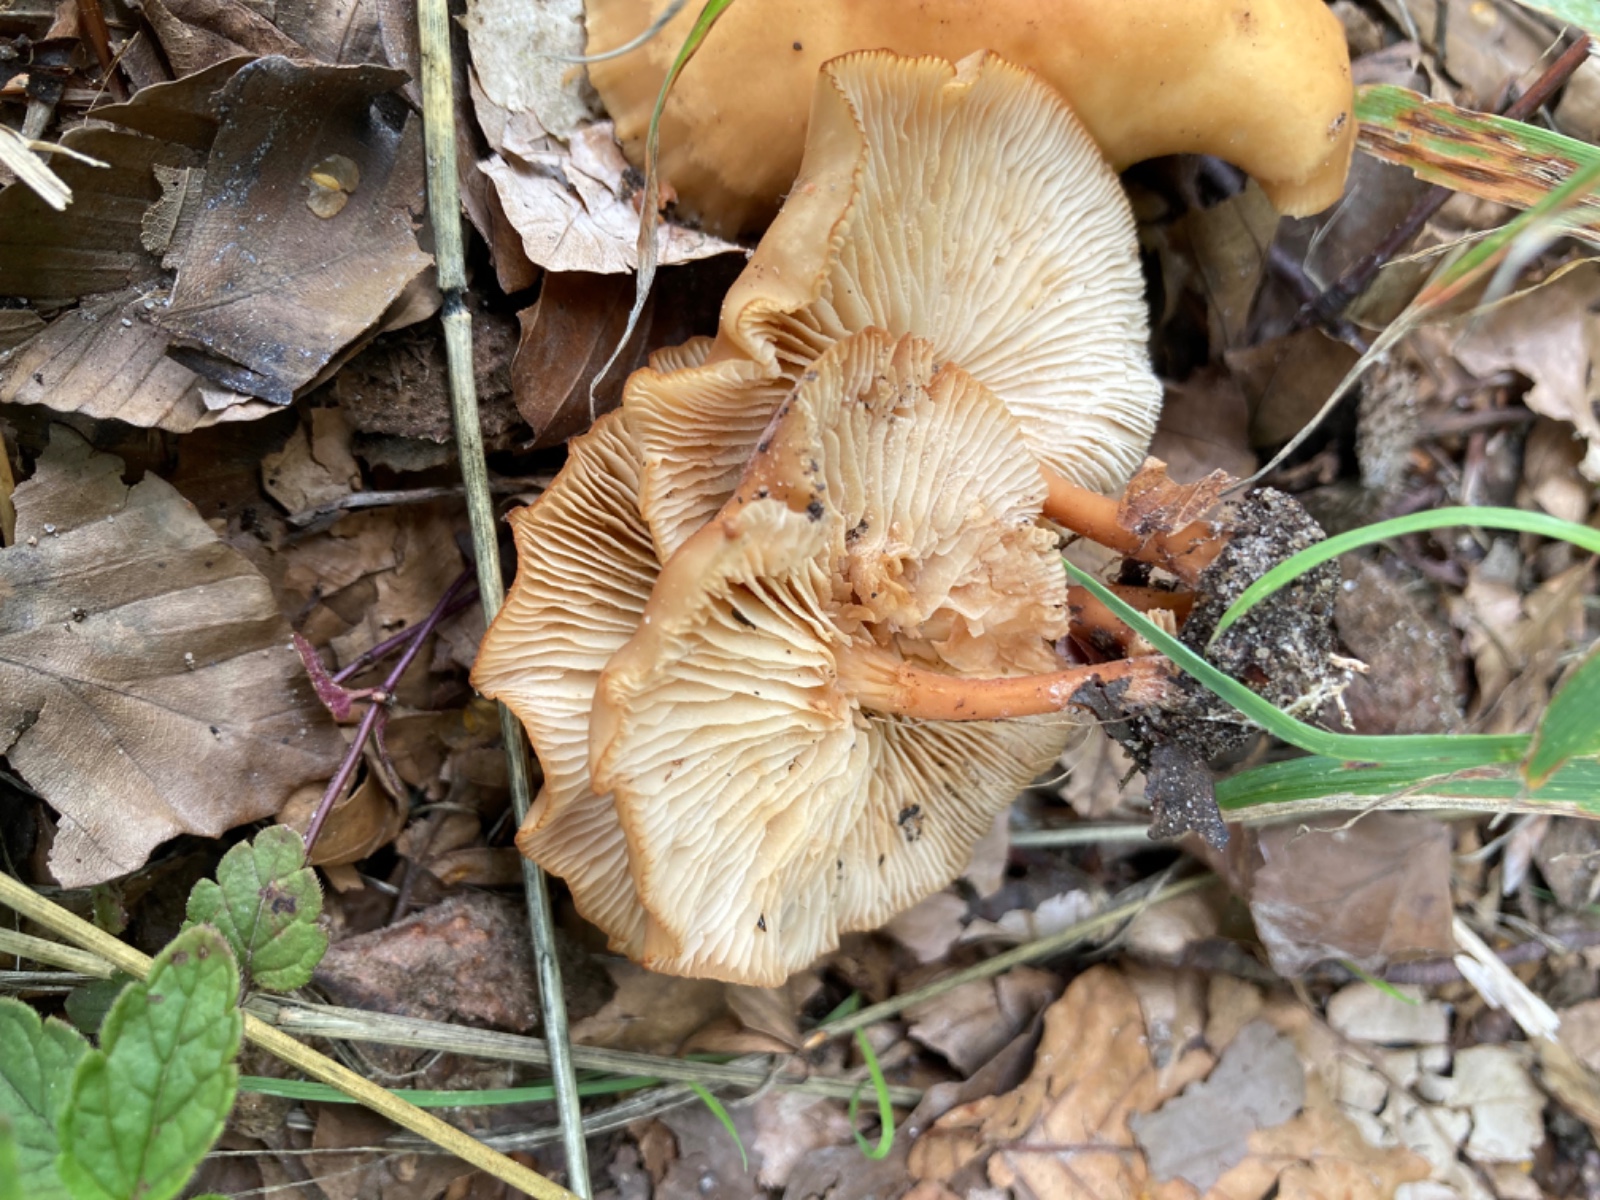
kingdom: Fungi
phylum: Basidiomycota
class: Agaricomycetes
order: Agaricales
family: Omphalotaceae
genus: Gymnopus
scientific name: Gymnopus dryophilus
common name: løv-fladhat
